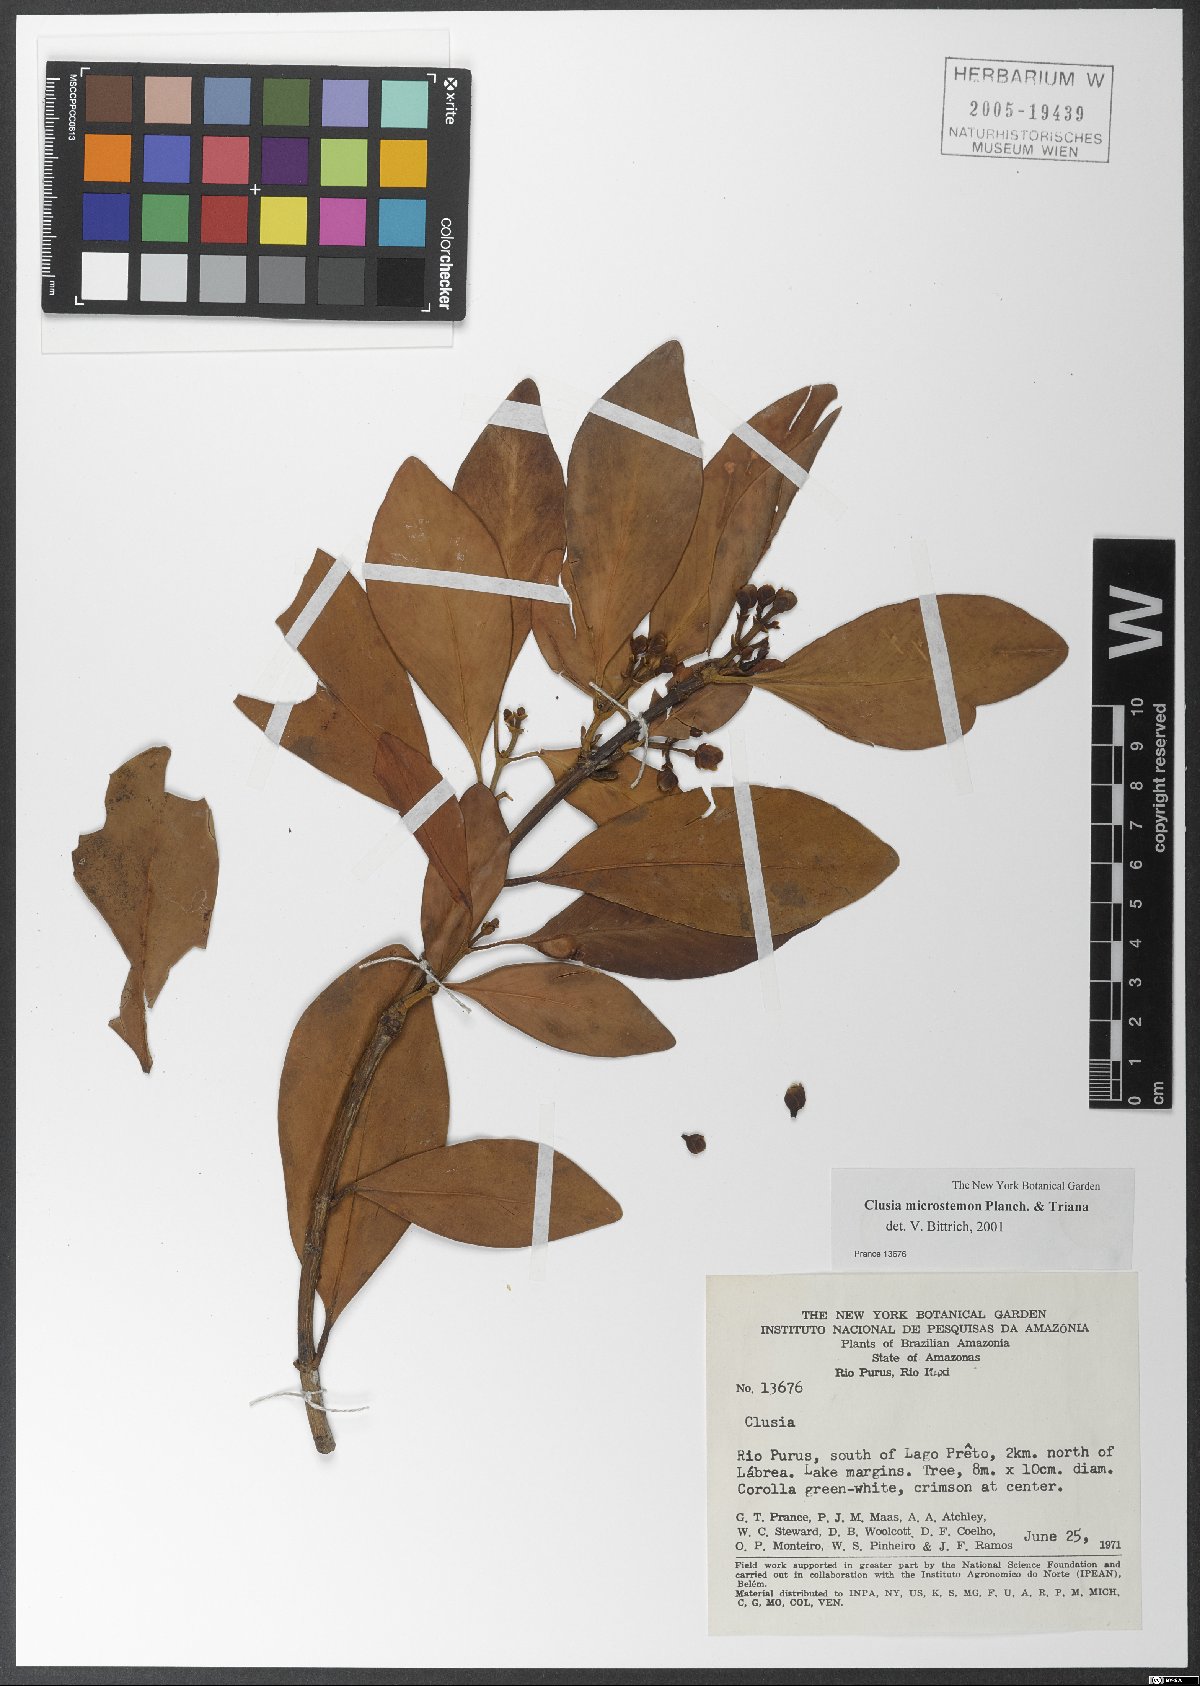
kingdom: Plantae
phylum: Tracheophyta
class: Magnoliopsida
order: Malpighiales
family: Clusiaceae
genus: Clusia
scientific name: Clusia microstemon
